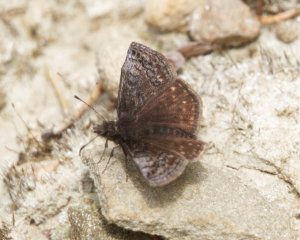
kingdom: Animalia
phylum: Arthropoda
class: Insecta
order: Lepidoptera
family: Hesperiidae
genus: Erynnis
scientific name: Erynnis icelus
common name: Dreamy Duskywing
